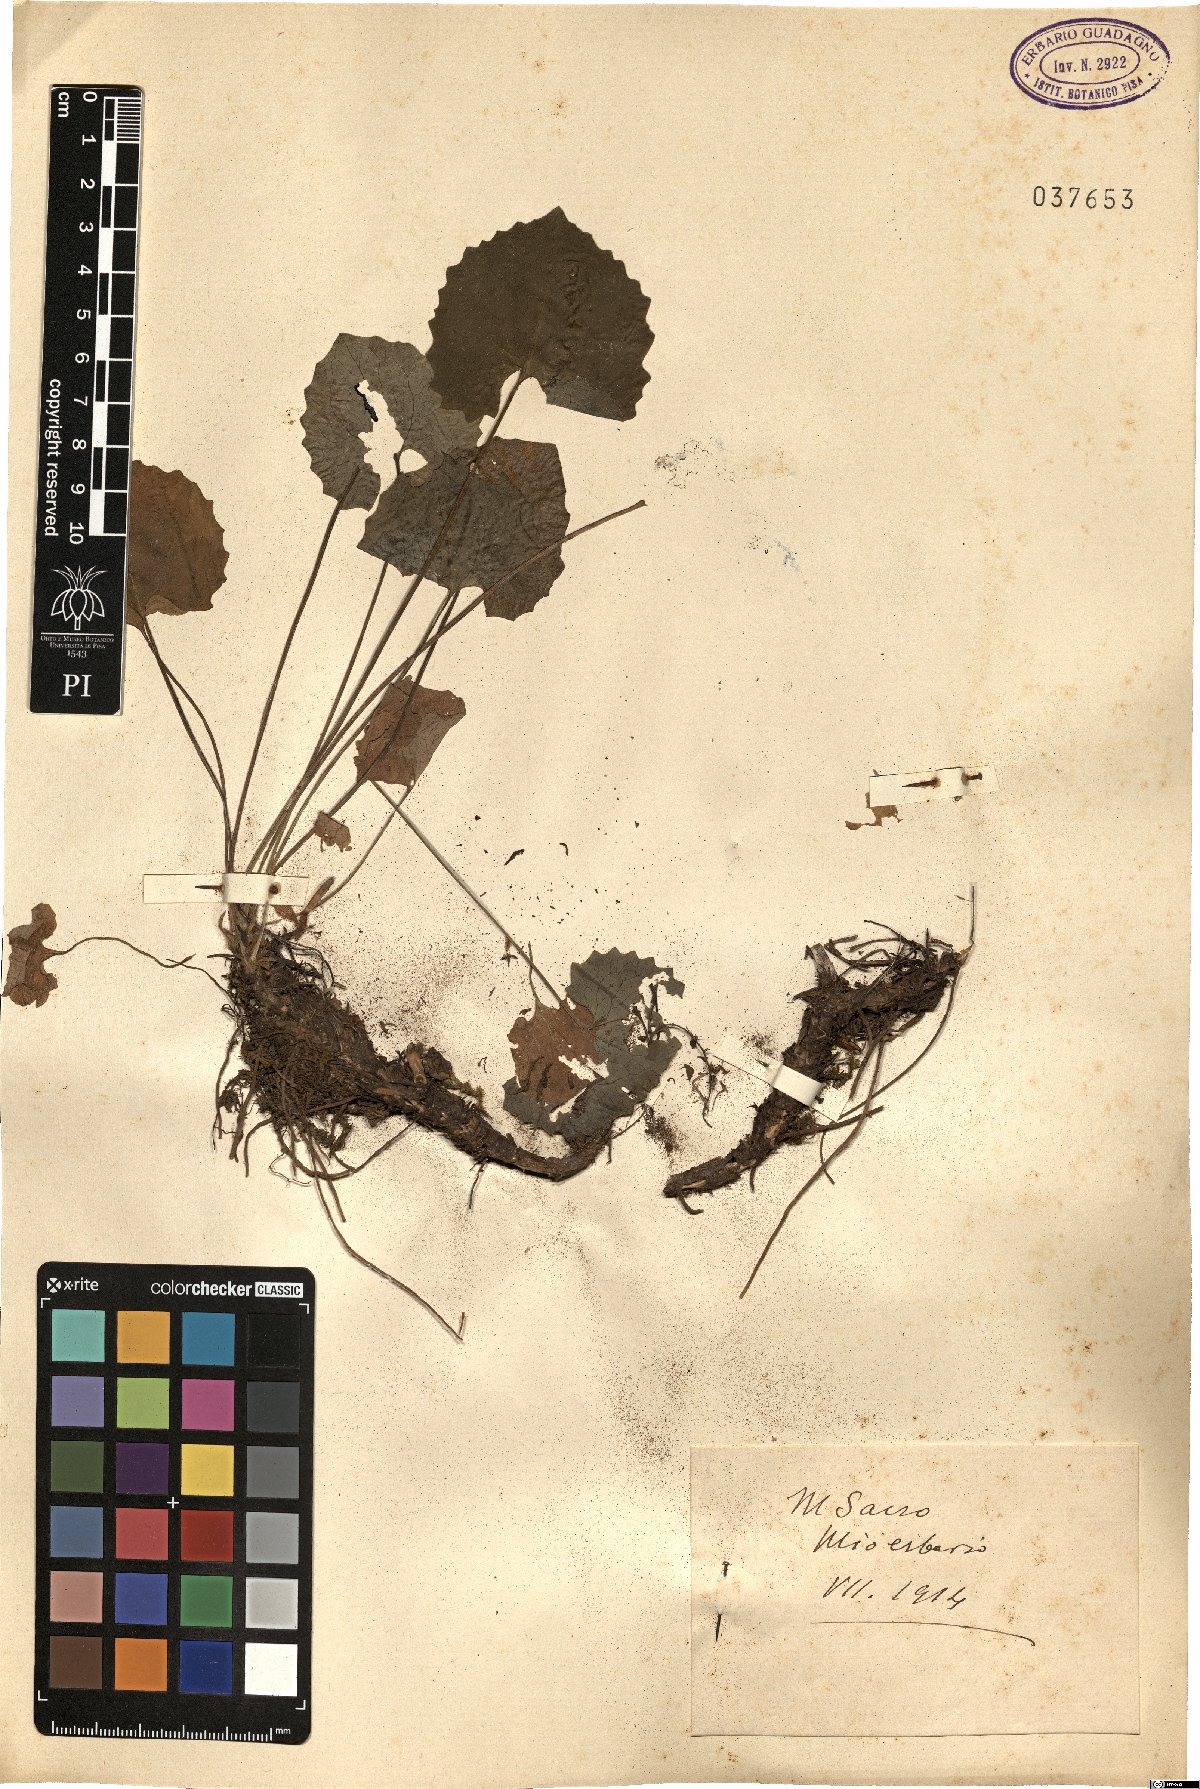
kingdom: Plantae
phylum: Tracheophyta
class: Magnoliopsida
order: Asterales
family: Asteraceae
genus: Doronicum
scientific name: Doronicum
